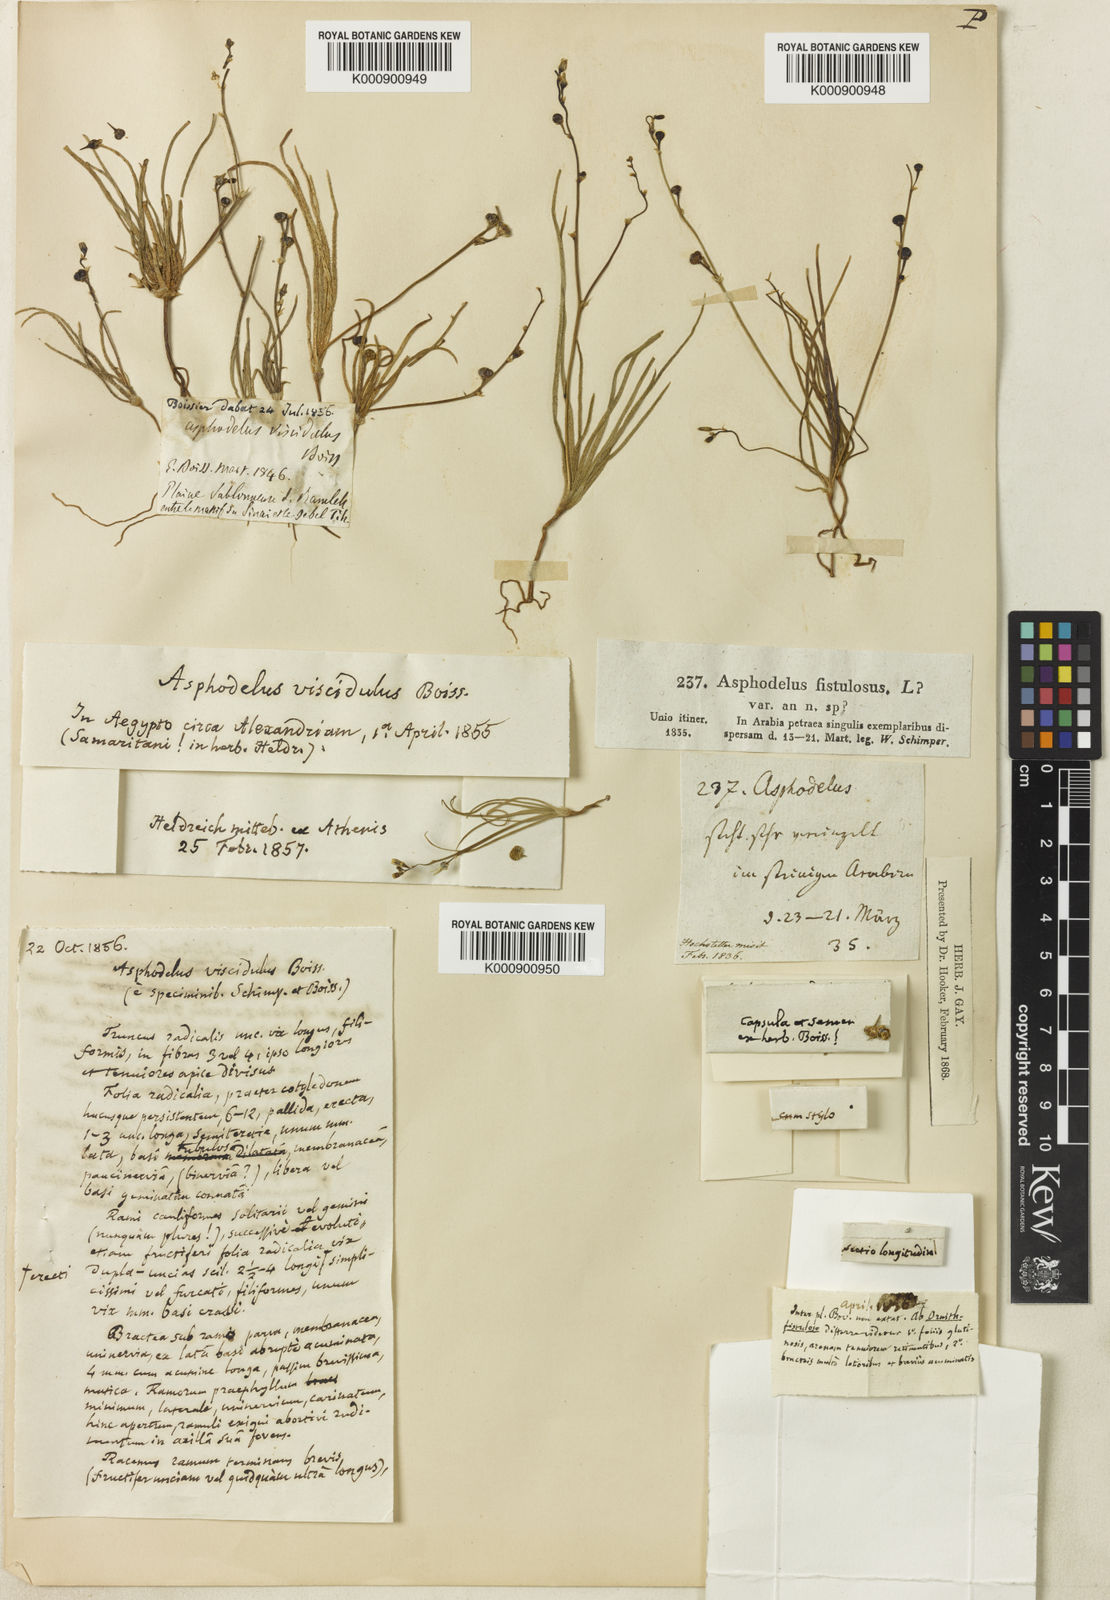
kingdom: Plantae
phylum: Tracheophyta
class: Liliopsida
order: Asparagales
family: Asphodelaceae
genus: Asphodelus
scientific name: Asphodelus viscidulus
